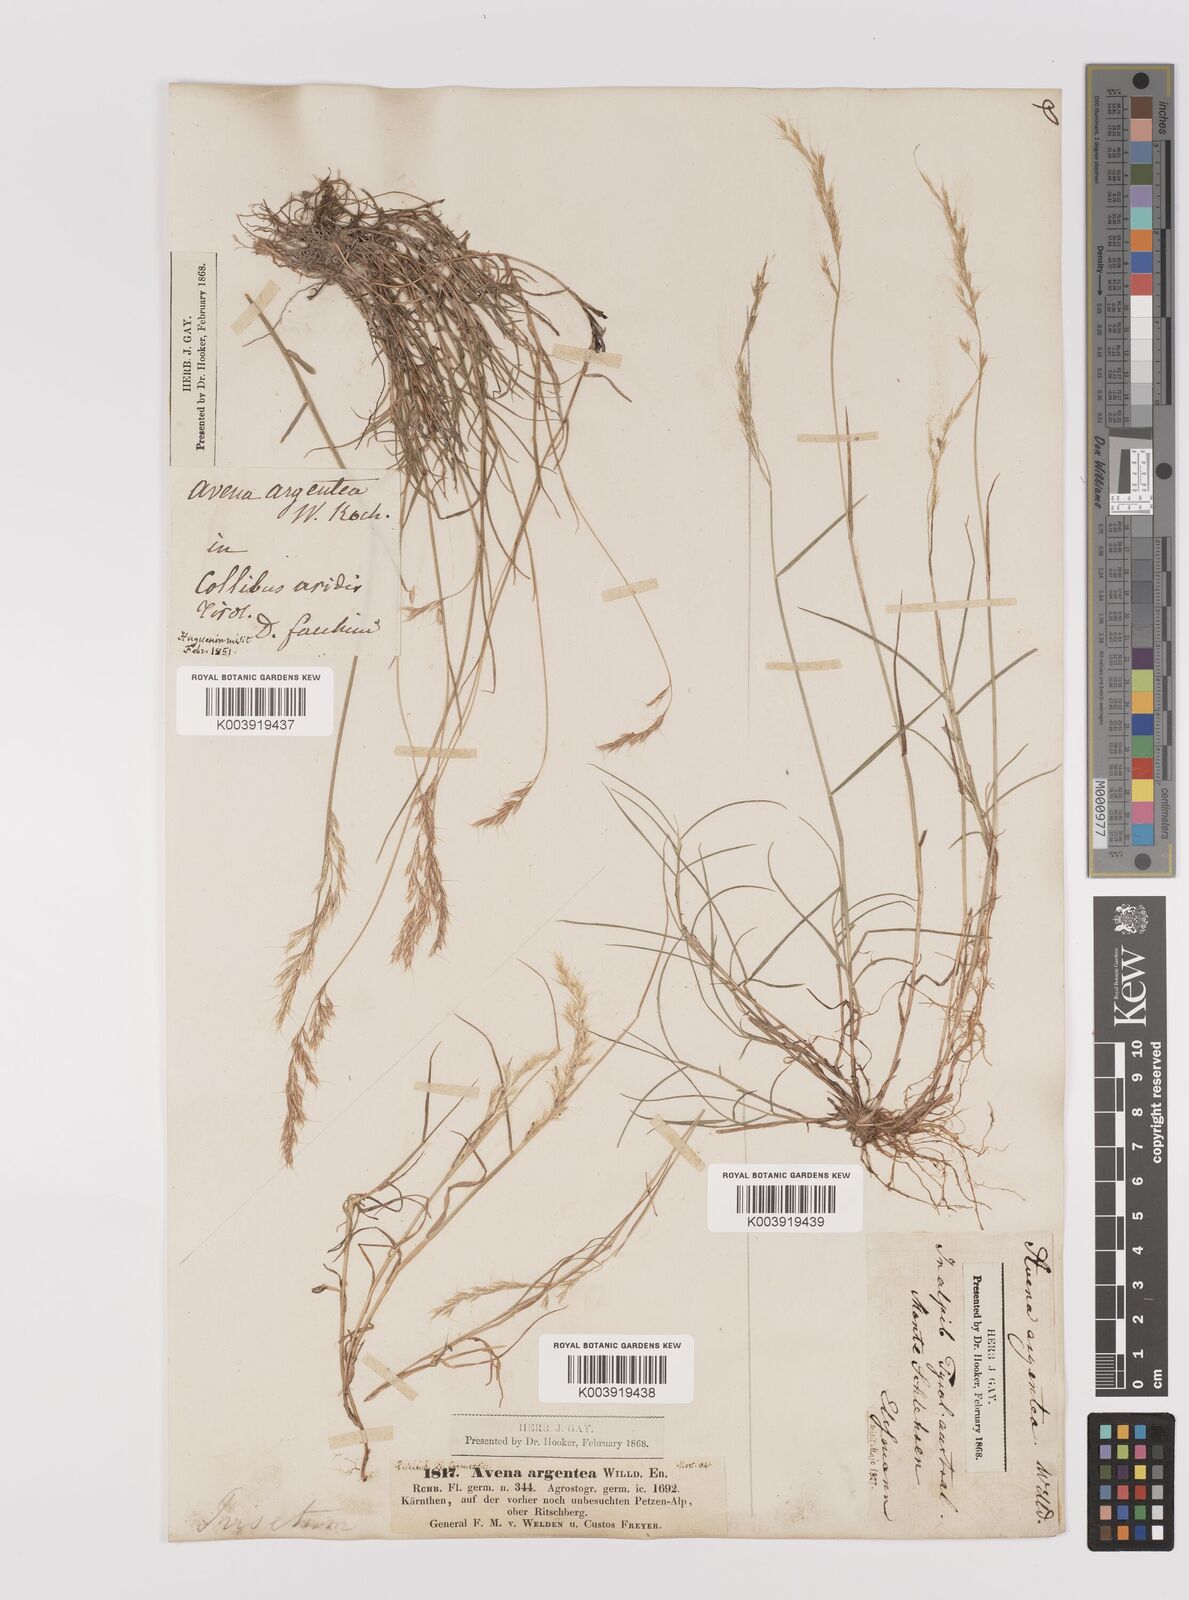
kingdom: Plantae
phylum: Tracheophyta
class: Liliopsida
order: Poales
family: Poaceae
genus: Trisetum
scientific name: Trisetum argenteum
